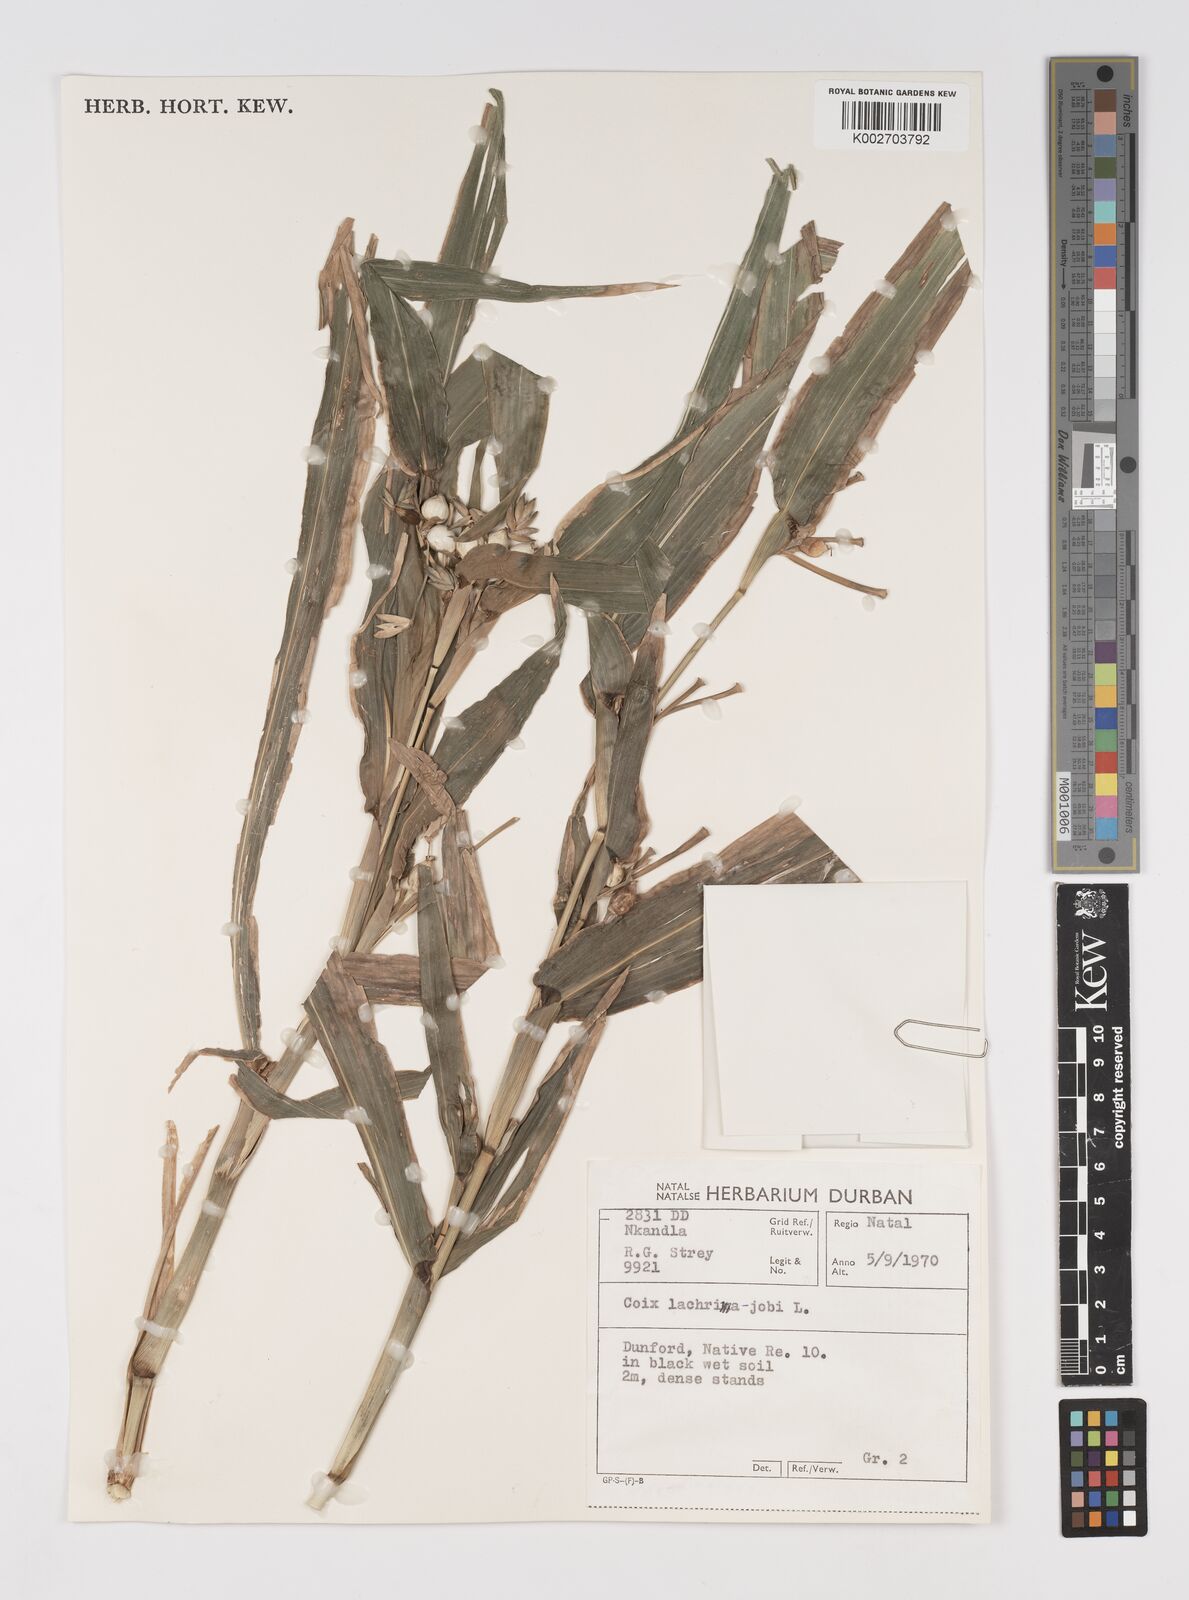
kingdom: Plantae
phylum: Tracheophyta
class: Liliopsida
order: Poales
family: Poaceae
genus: Coix
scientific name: Coix lacryma-jobi
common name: Job's tears
